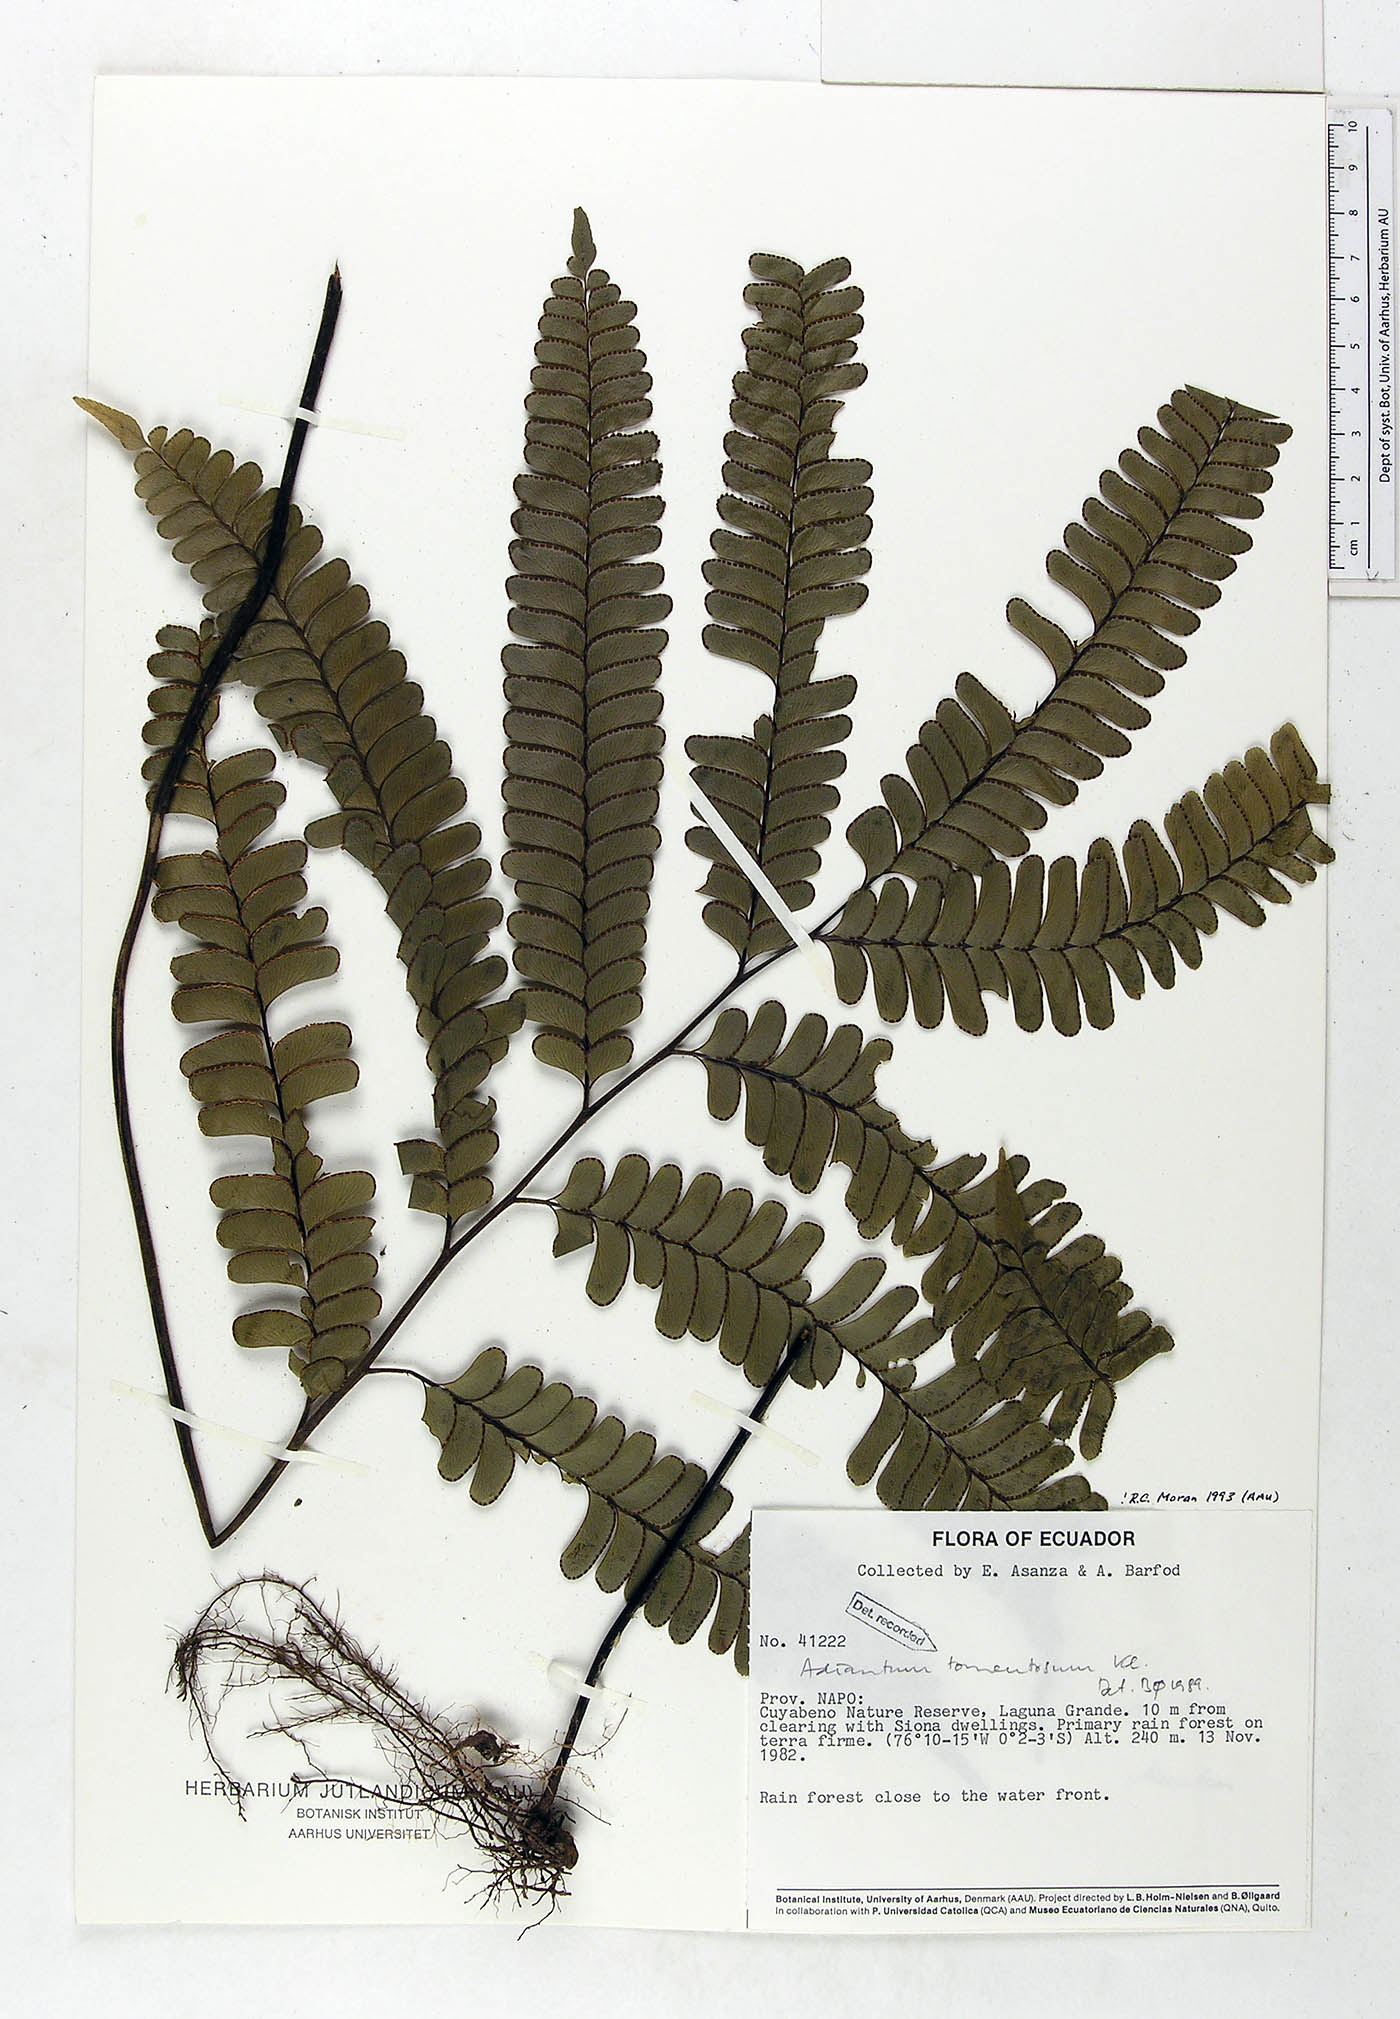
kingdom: Plantae
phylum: Tracheophyta
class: Polypodiopsida
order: Polypodiales
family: Pteridaceae
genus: Adiantum
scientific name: Adiantum tomentosum
